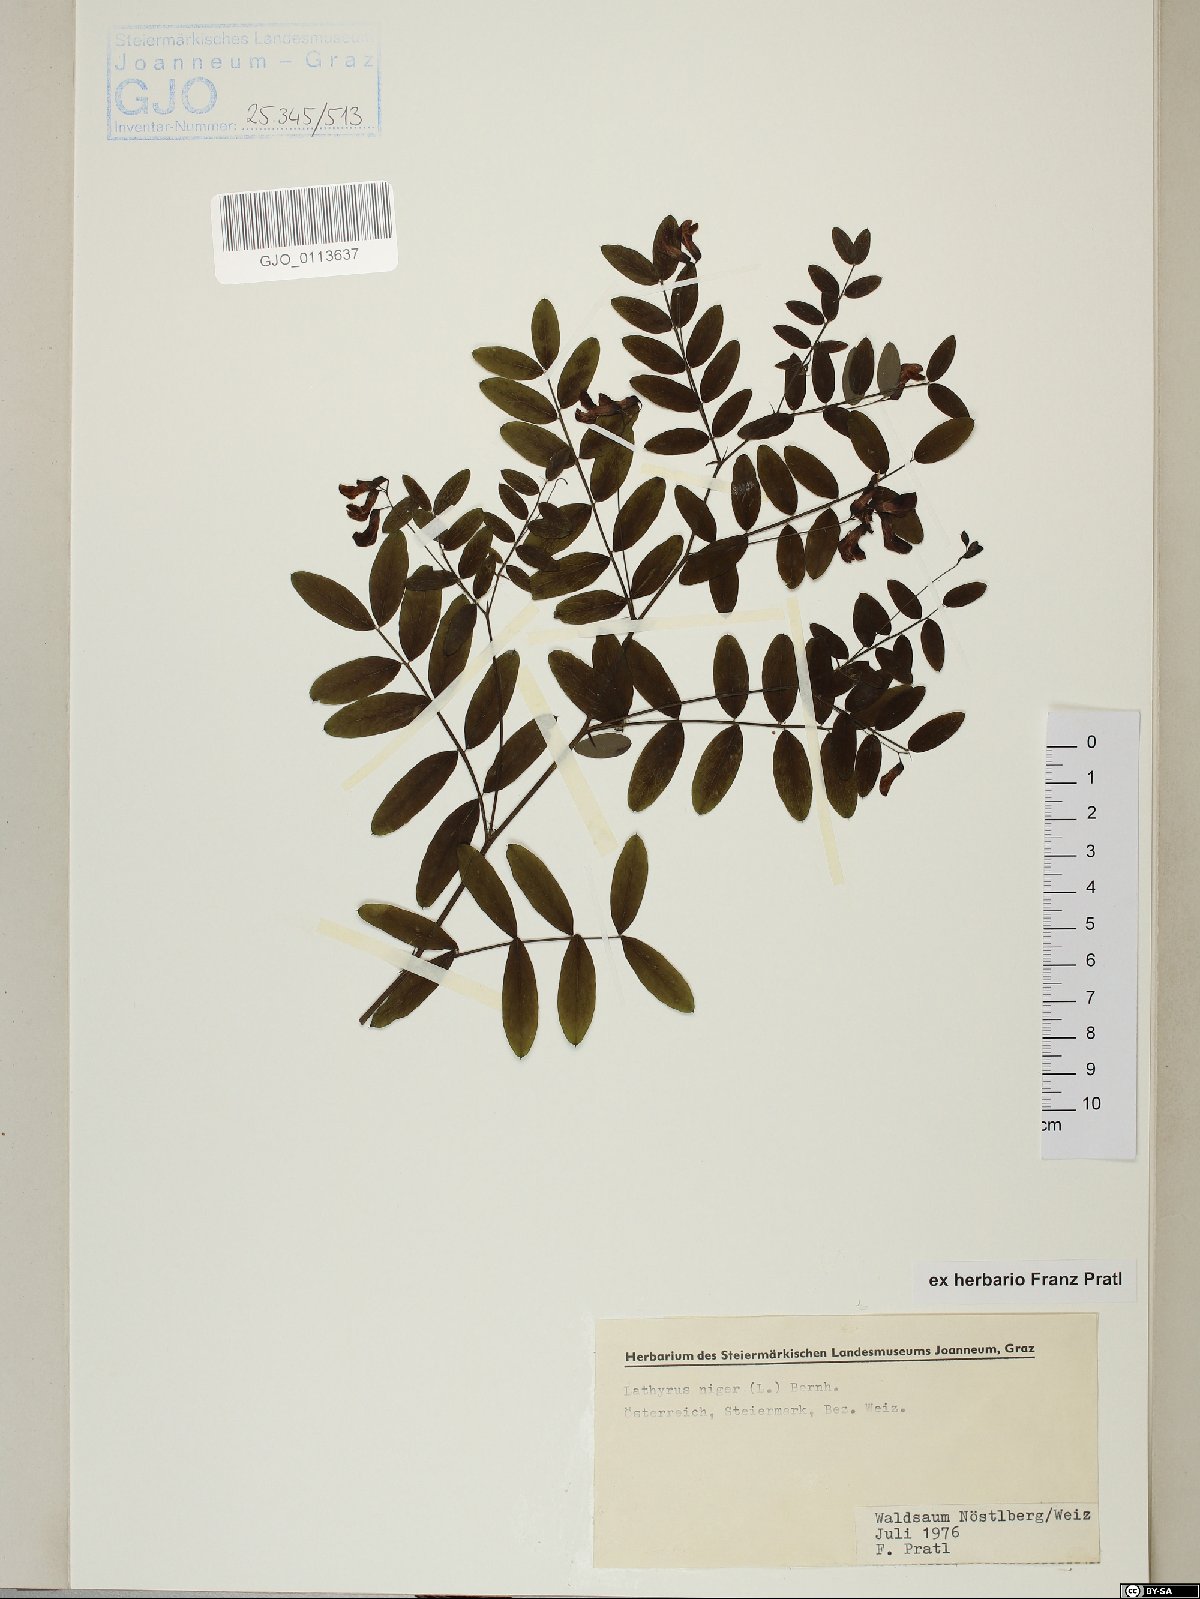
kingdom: Plantae
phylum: Tracheophyta
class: Magnoliopsida
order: Fabales
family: Fabaceae
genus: Lathyrus
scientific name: Lathyrus niger
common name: Black pea
